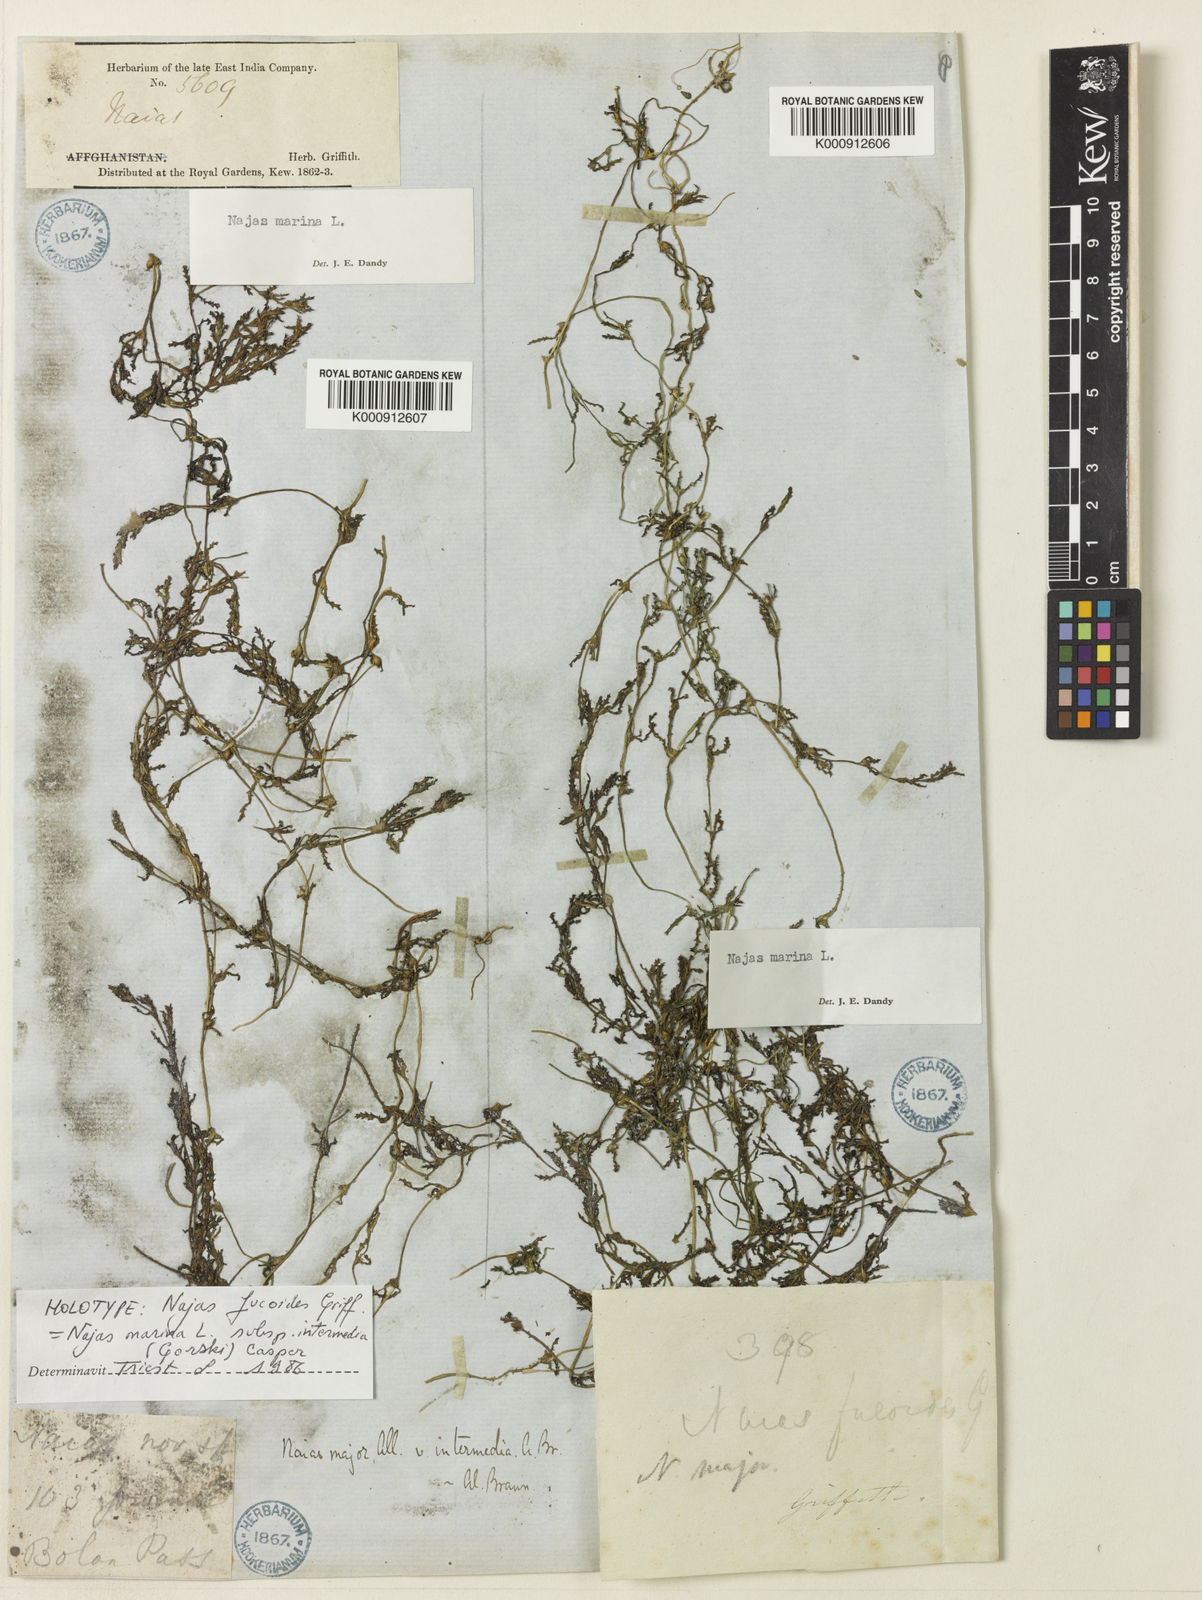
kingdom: Plantae
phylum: Tracheophyta
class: Liliopsida
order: Alismatales
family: Hydrocharitaceae
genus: Najas
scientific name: Najas marina
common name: Holly-leaved naiad
